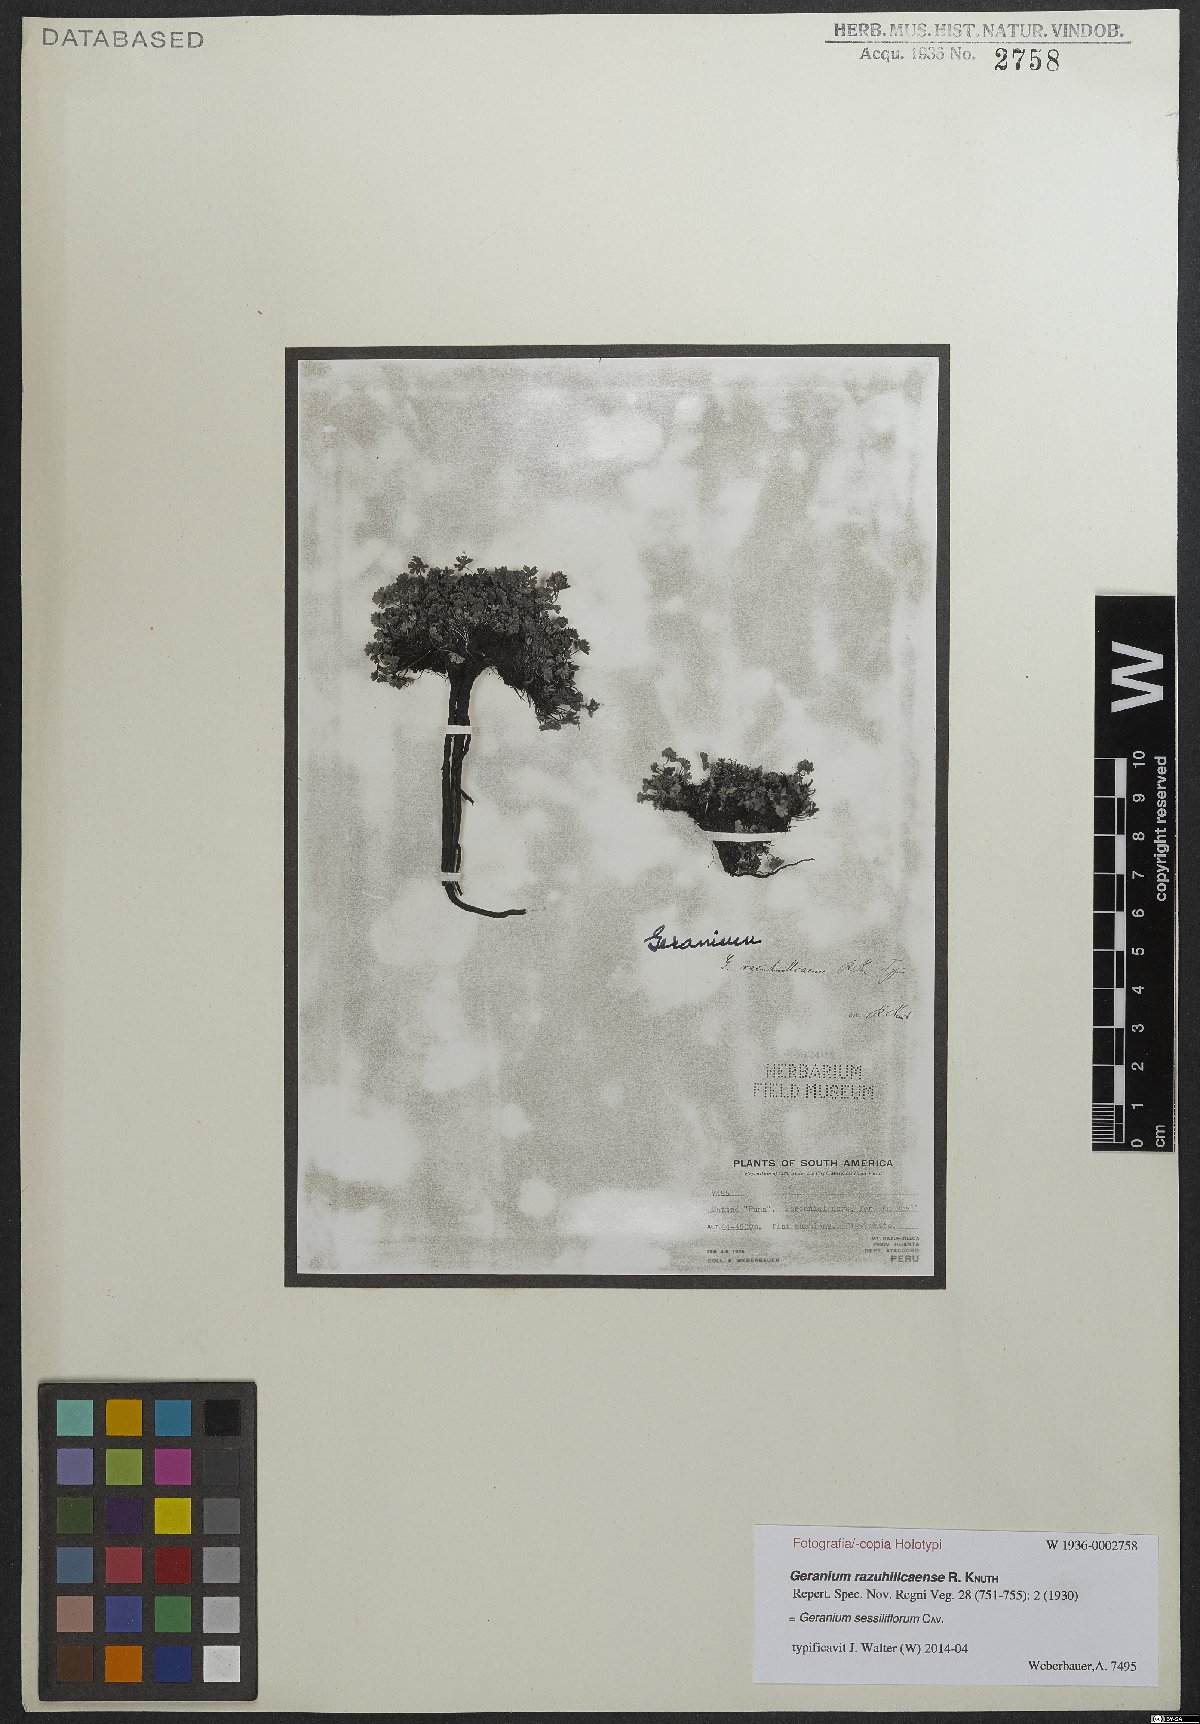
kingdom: Plantae
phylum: Tracheophyta
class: Magnoliopsida
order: Geraniales
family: Geraniaceae
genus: Geranium
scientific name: Geranium sessiliflorum
